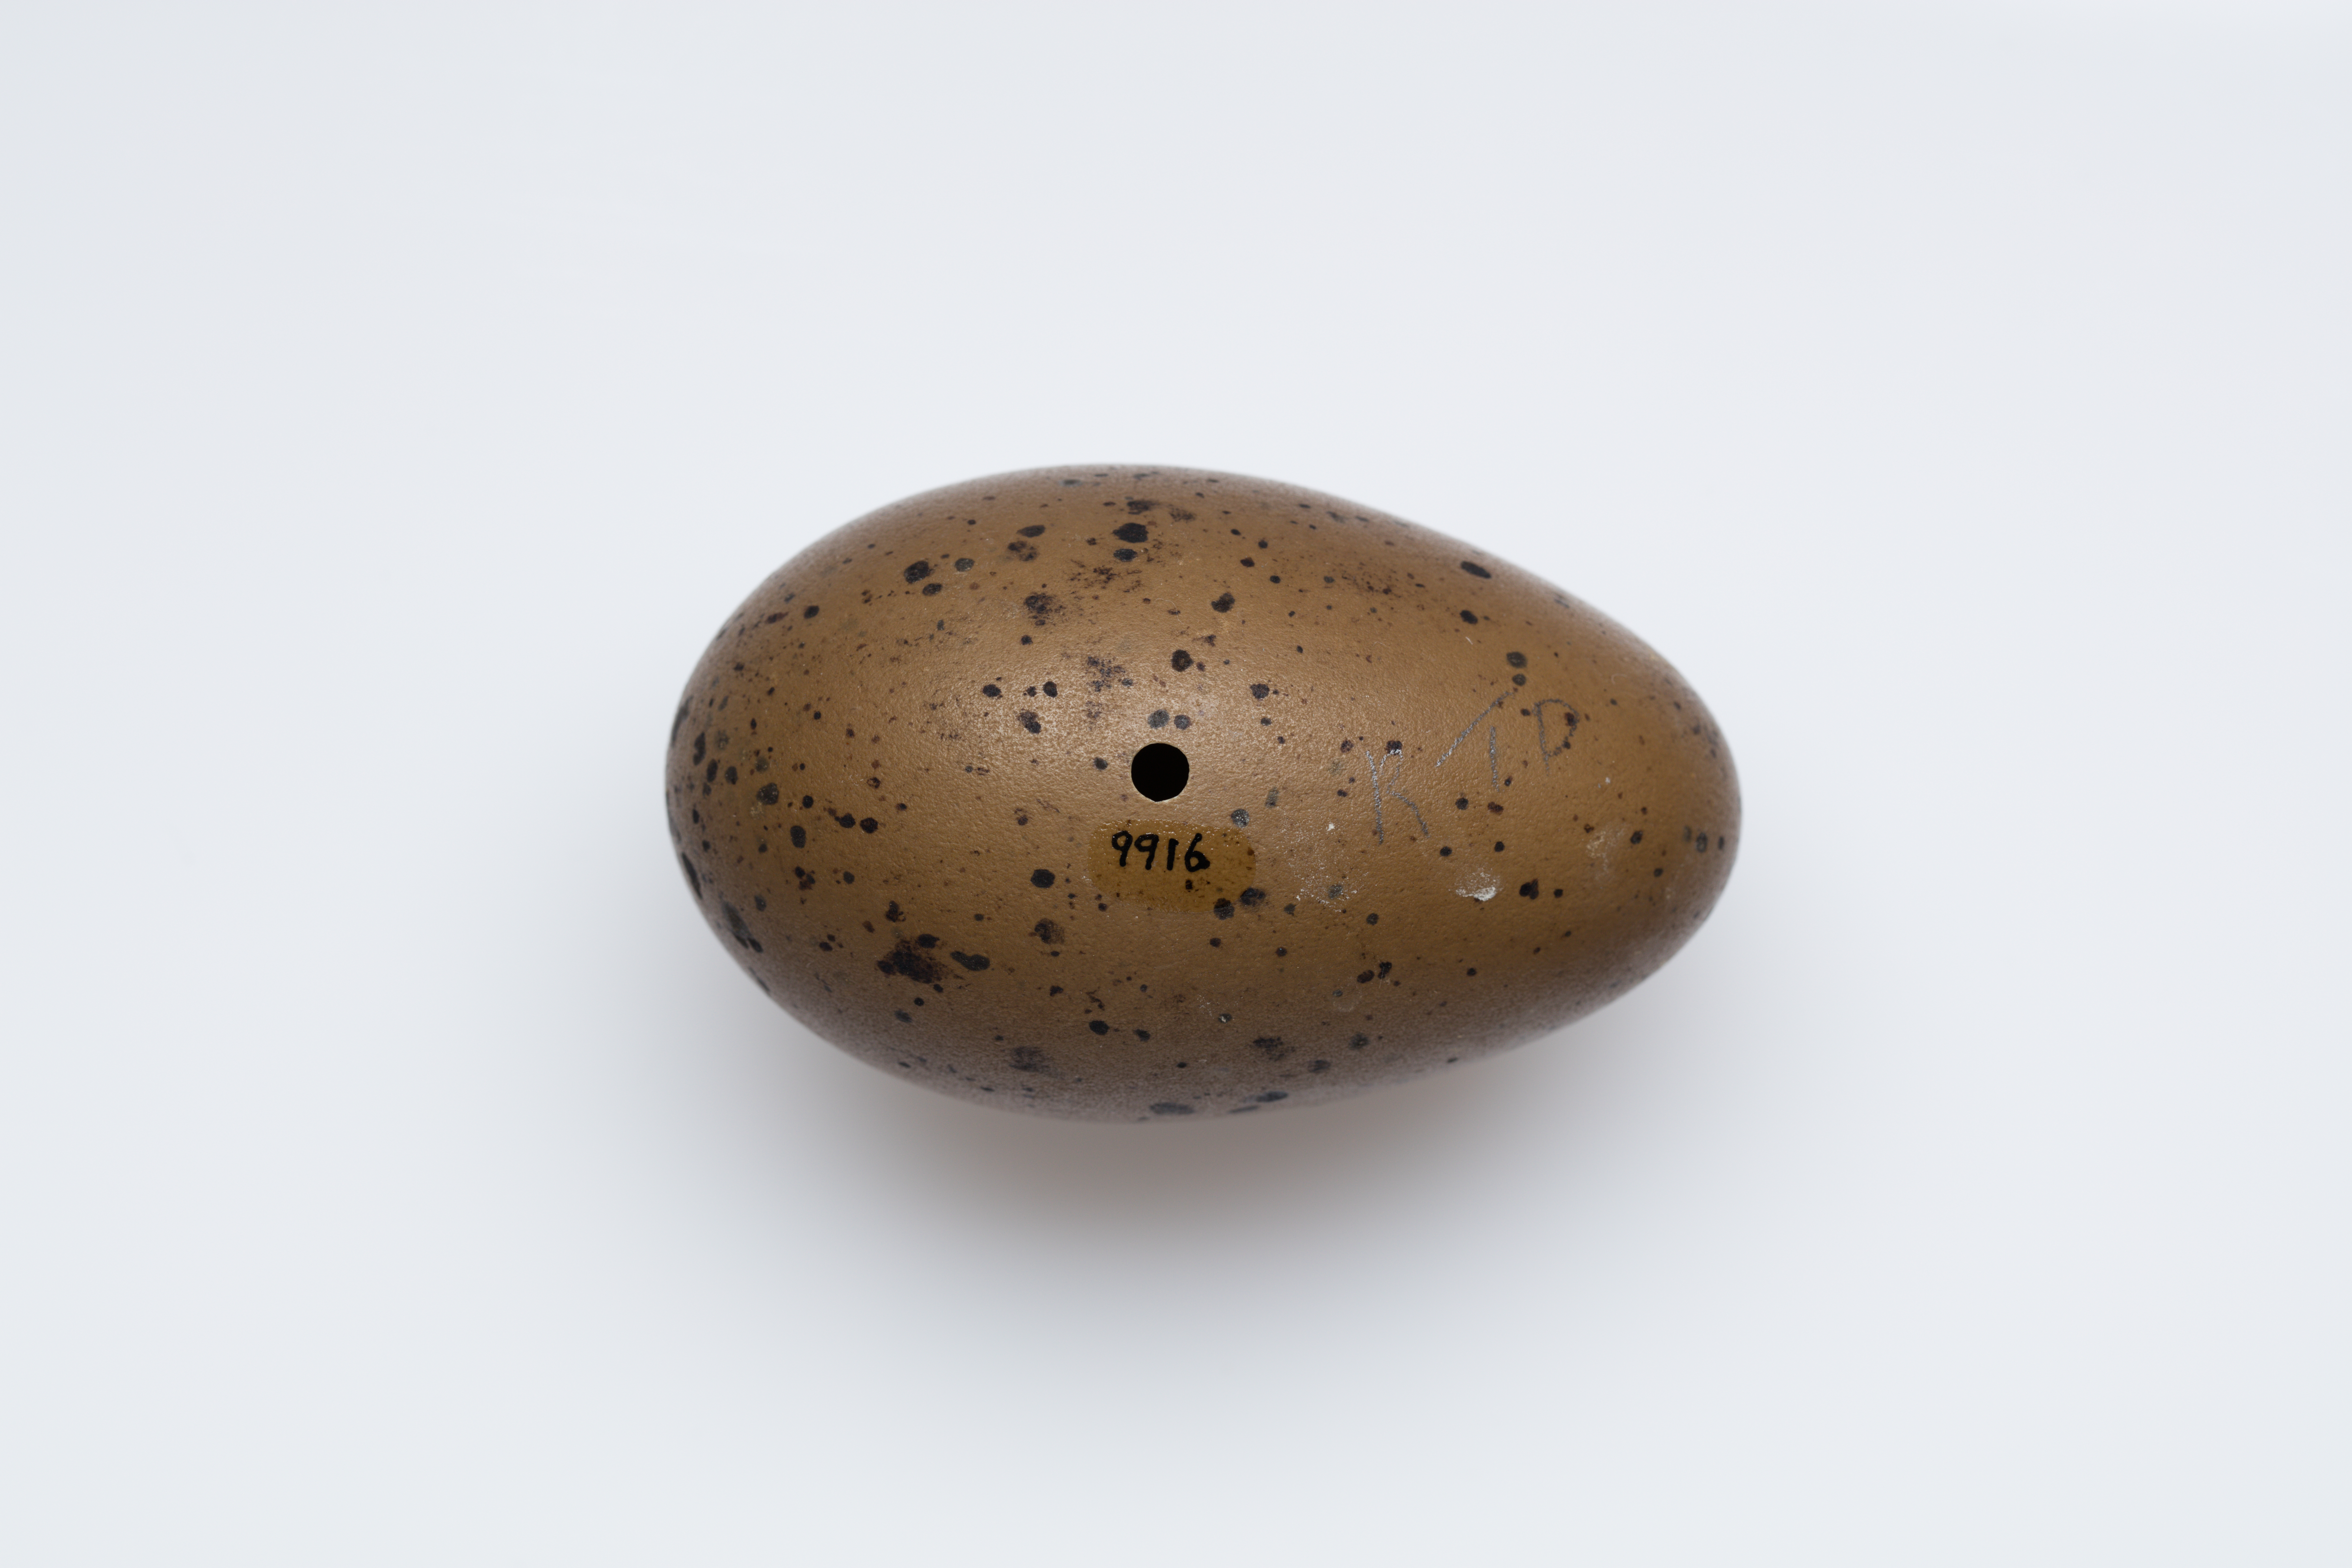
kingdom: Animalia
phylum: Chordata
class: Aves
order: Gaviiformes
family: Gaviidae
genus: Gavia
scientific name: Gavia stellata
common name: Red-throated loon
